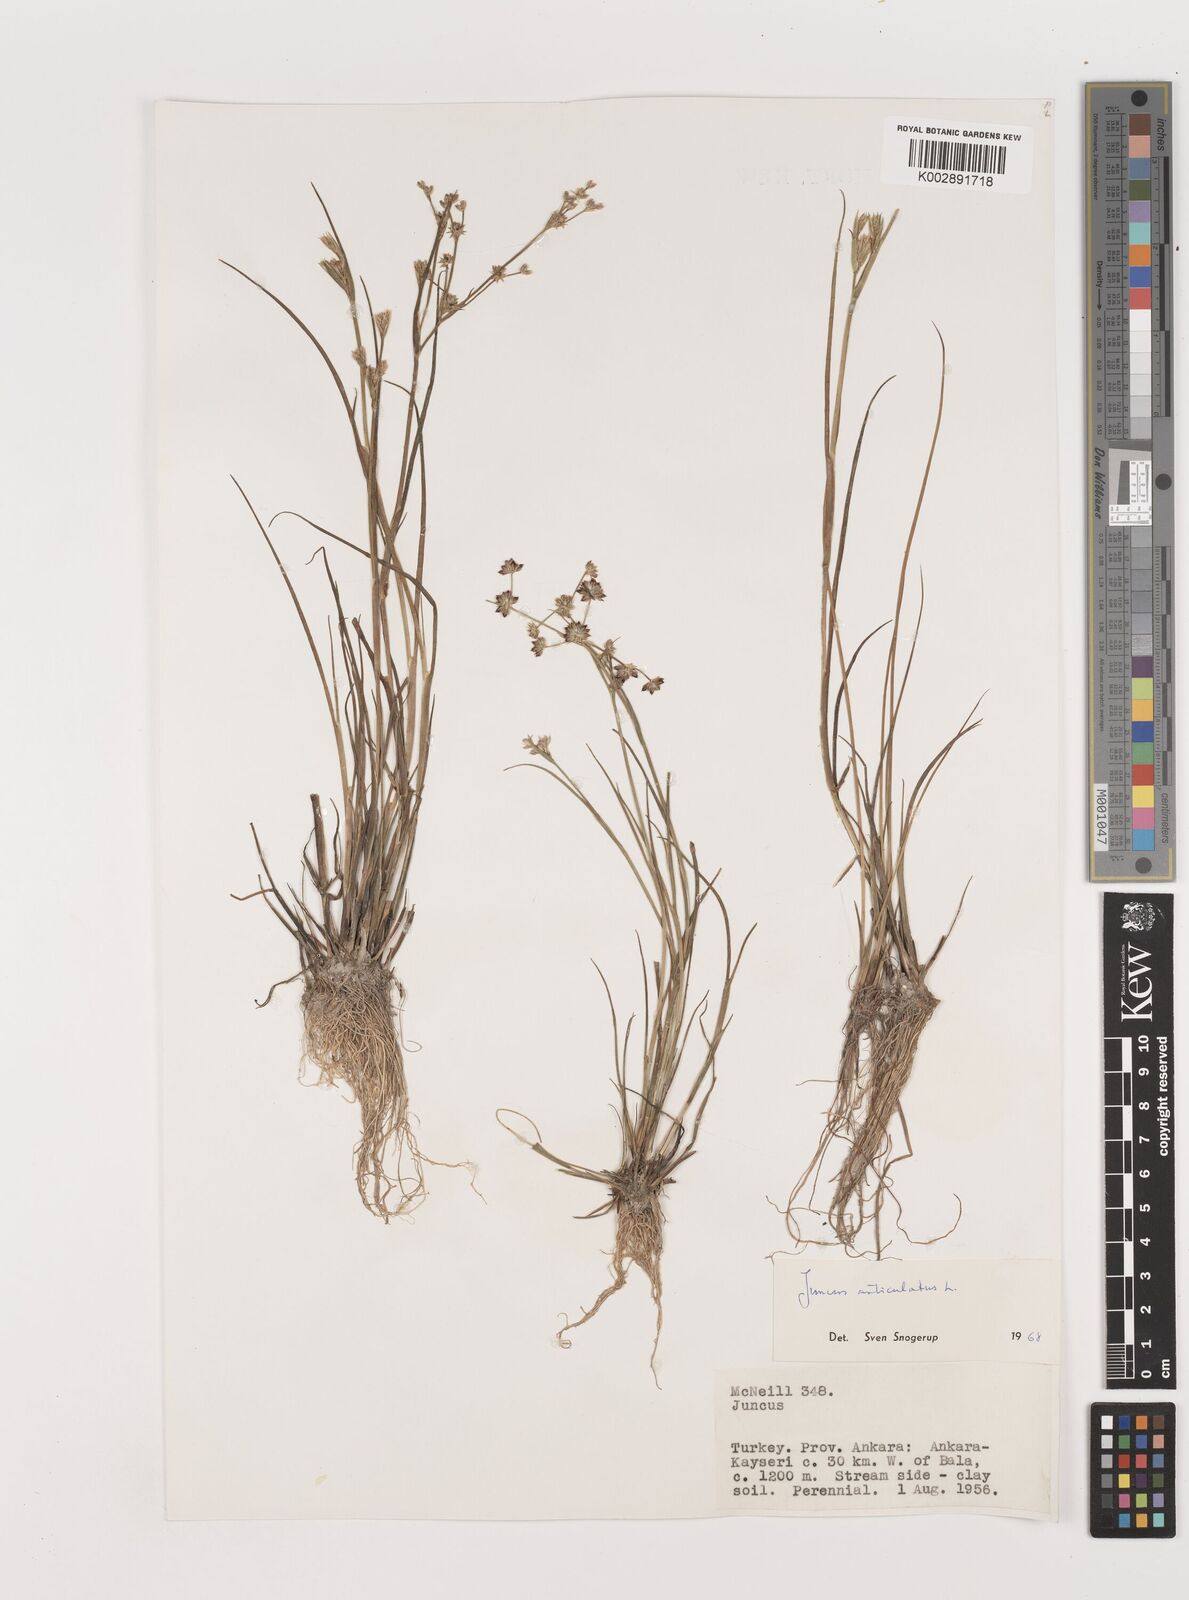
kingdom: Plantae
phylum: Tracheophyta
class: Liliopsida
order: Poales
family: Juncaceae
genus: Juncus
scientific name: Juncus articulatus
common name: Jointed rush
